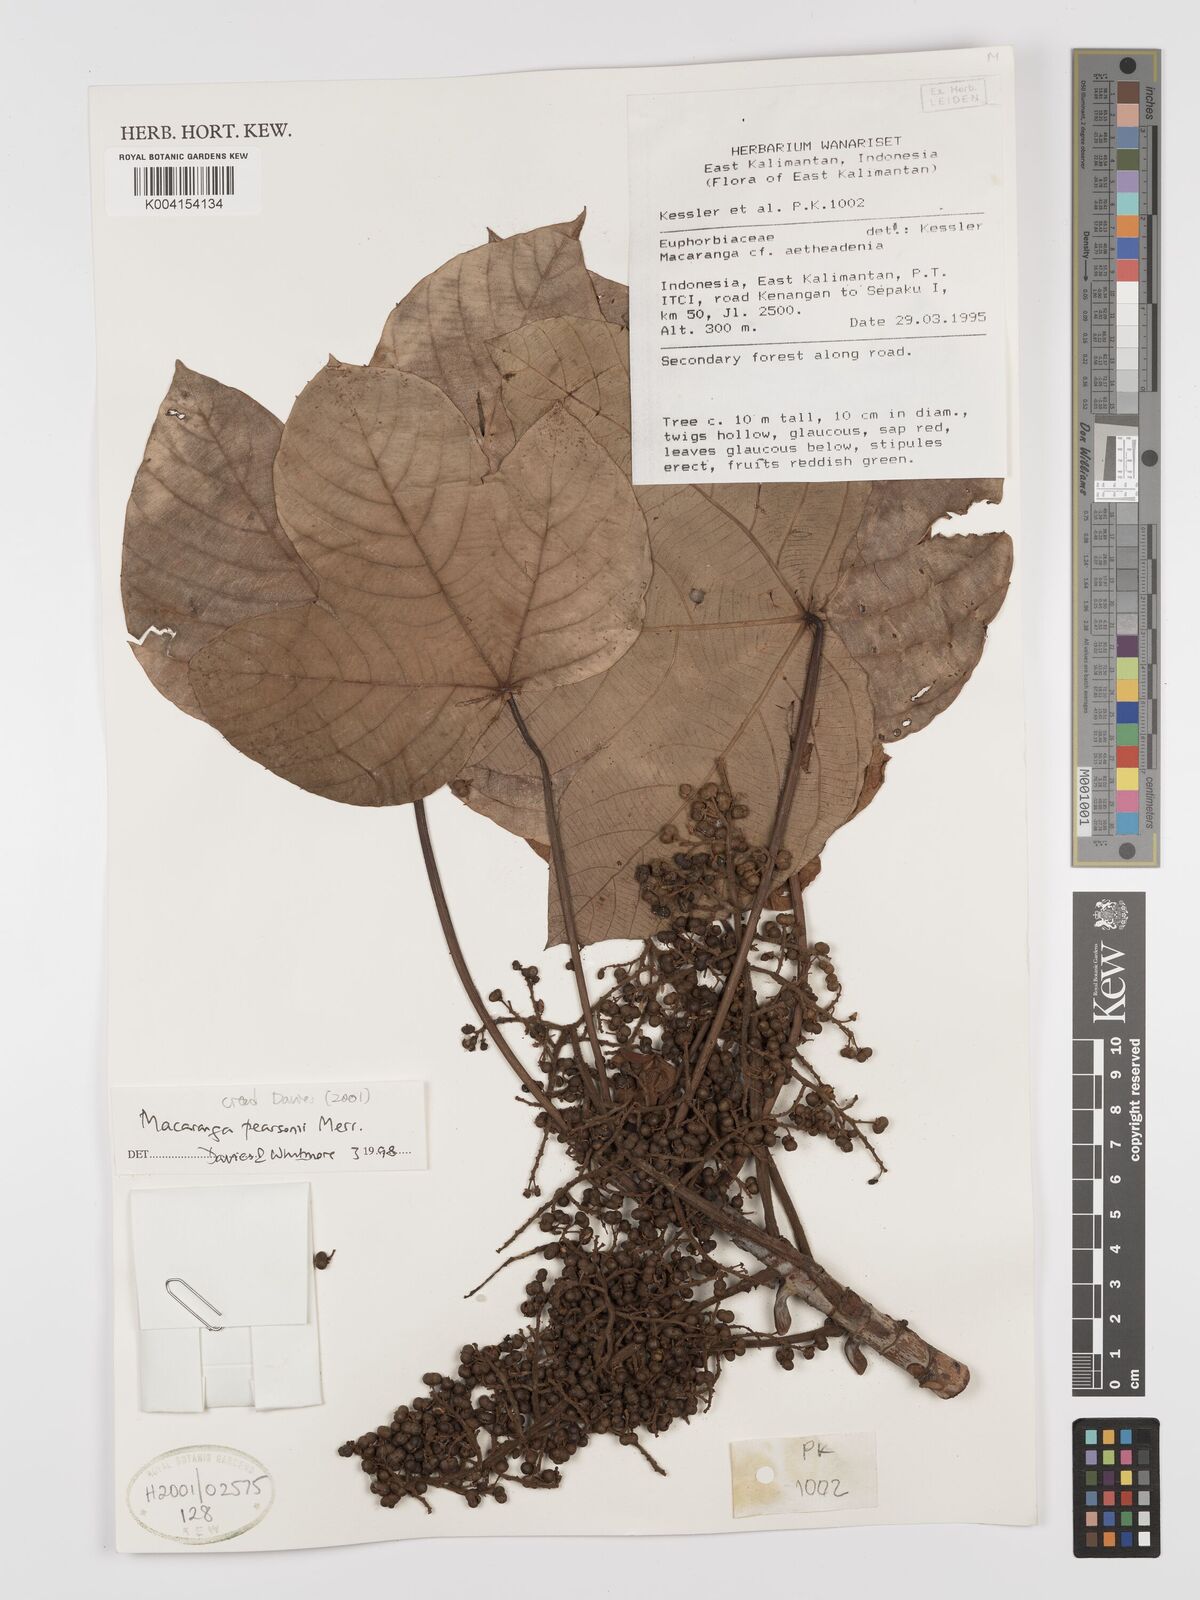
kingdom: Plantae
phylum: Tracheophyta
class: Magnoliopsida
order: Malpighiales
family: Euphorbiaceae
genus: Macaranga
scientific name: Macaranga pearsonii
